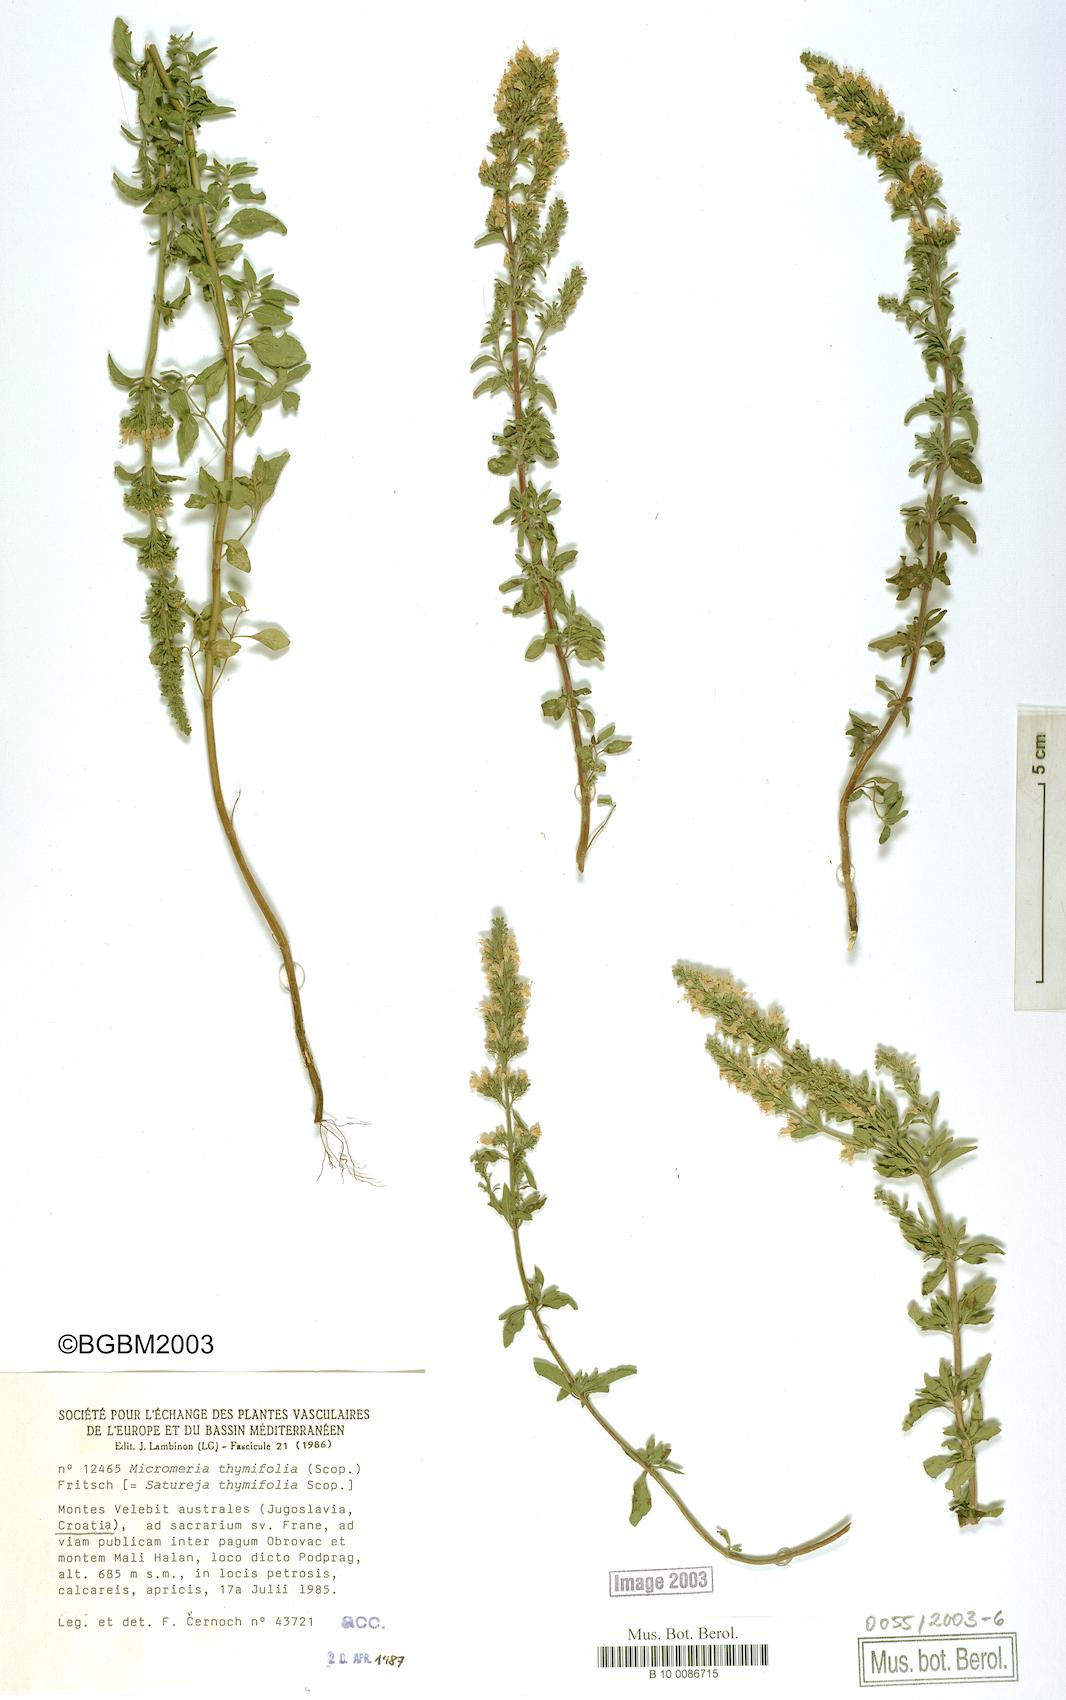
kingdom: Plantae
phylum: Tracheophyta
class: Magnoliopsida
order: Lamiales
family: Lamiaceae
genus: Clinopodium
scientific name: Clinopodium album
